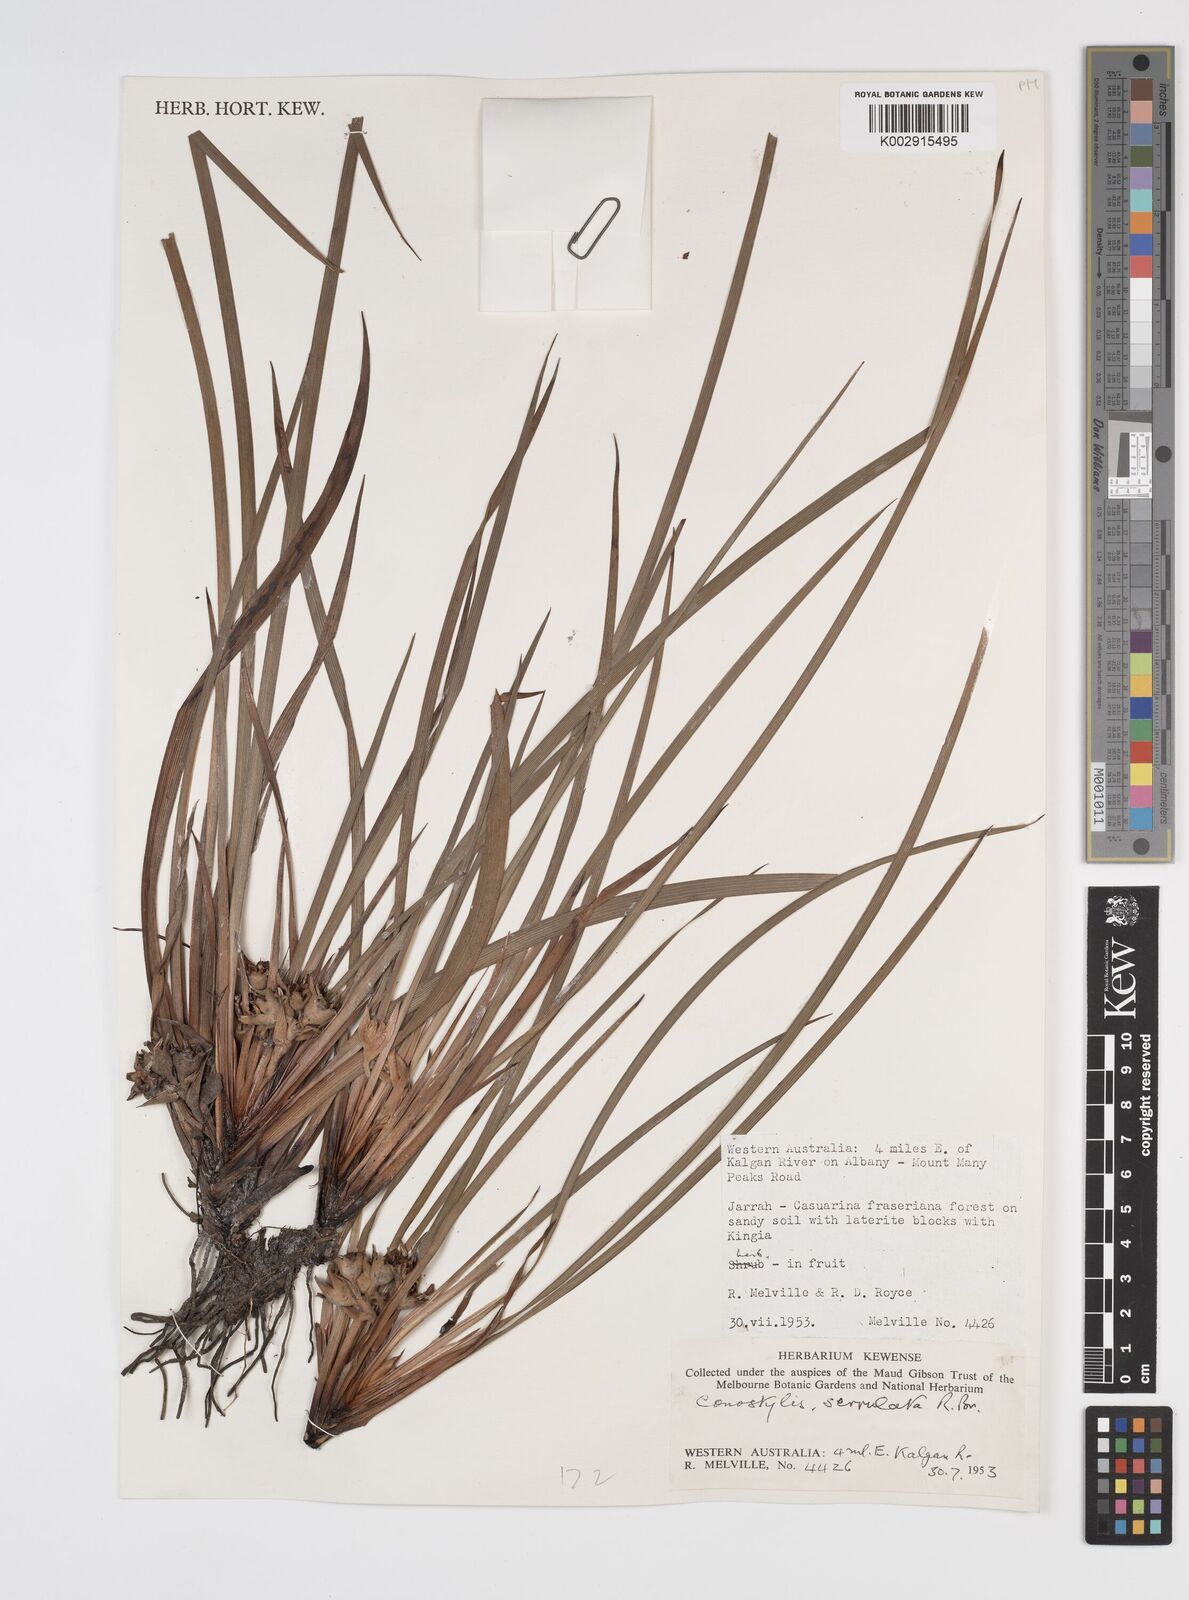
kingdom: Plantae
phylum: Tracheophyta
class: Liliopsida
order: Commelinales
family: Haemodoraceae
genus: Conostylis
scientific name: Conostylis serrulata
